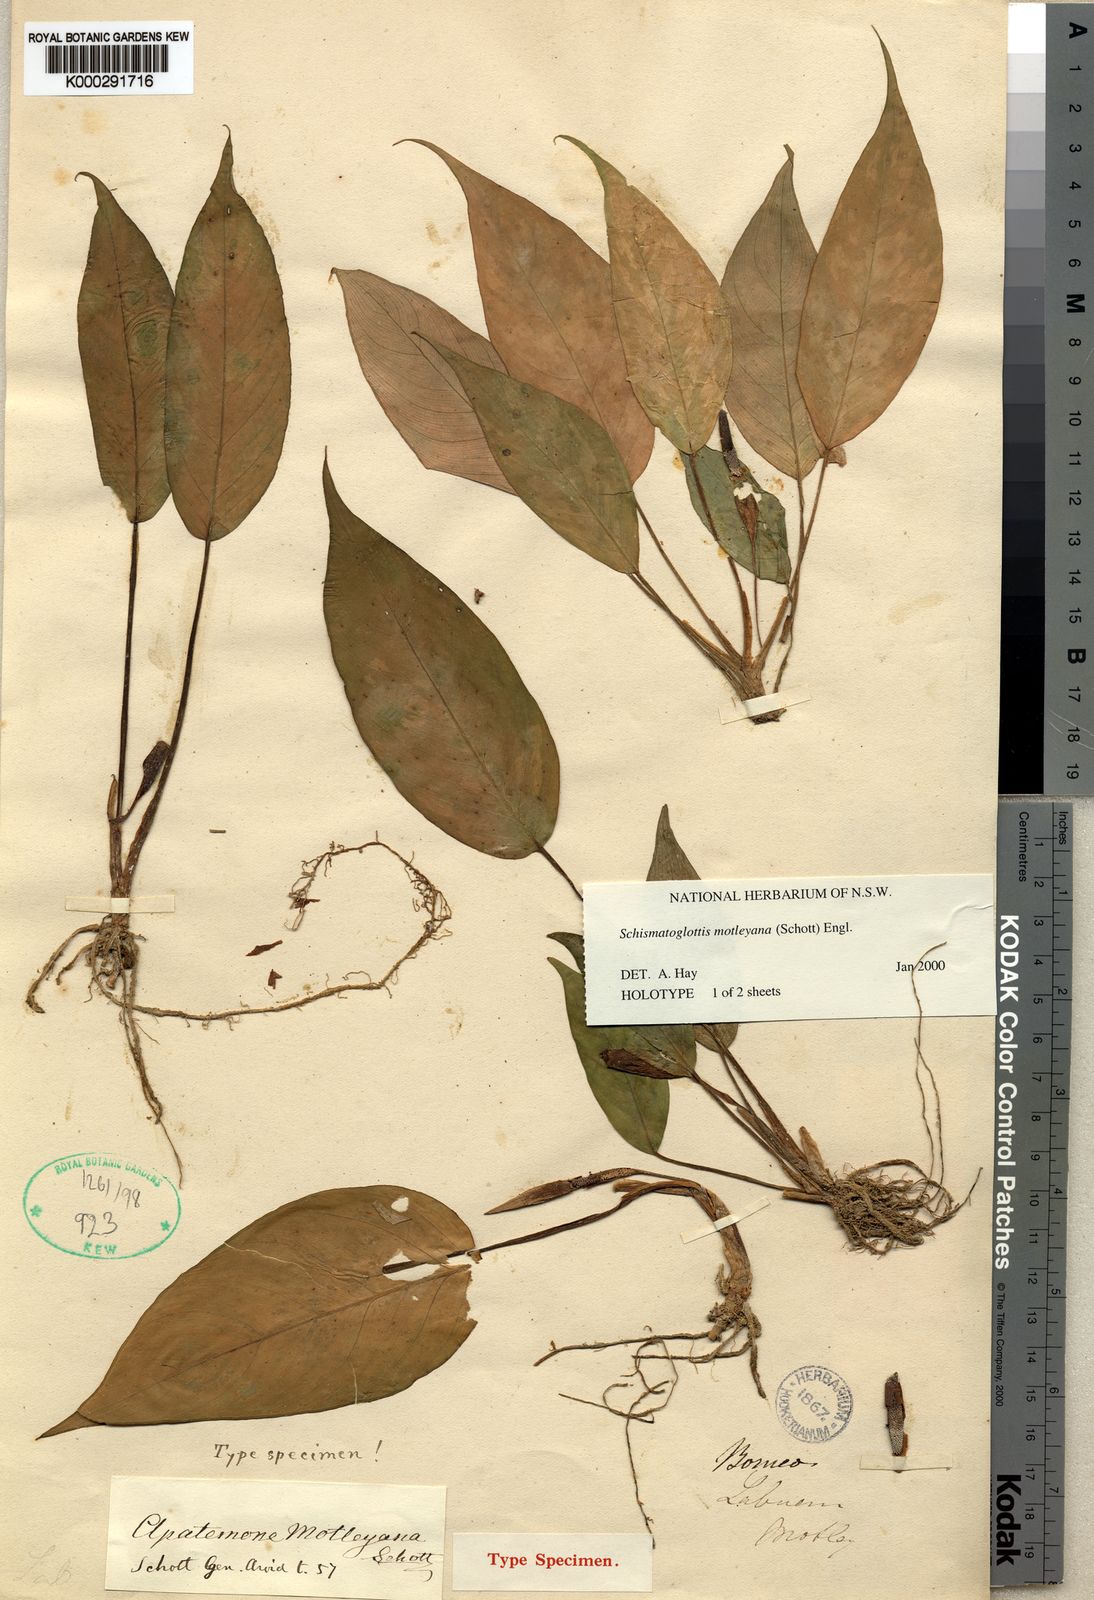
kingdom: Plantae
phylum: Tracheophyta
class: Liliopsida
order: Alismatales
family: Araceae
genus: Schismatoglottis
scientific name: Schismatoglottis motleyana
